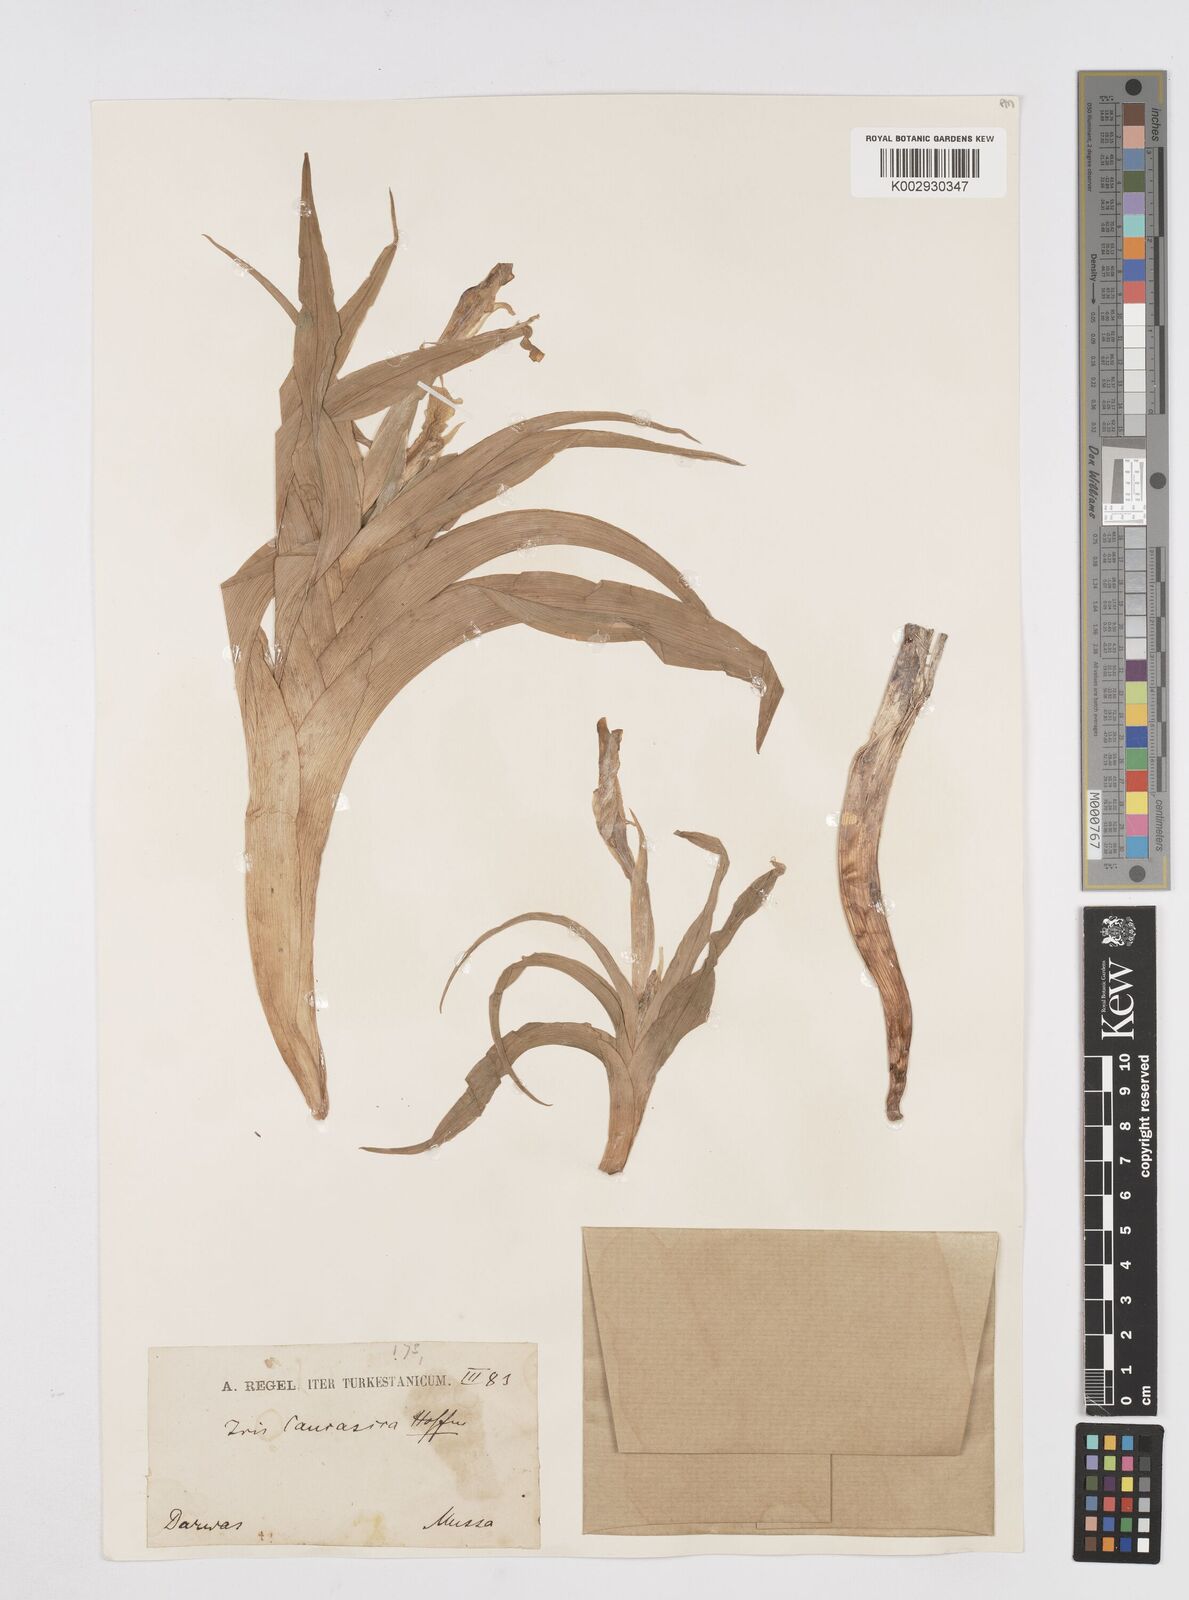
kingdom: Plantae
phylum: Tracheophyta
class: Liliopsida
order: Asparagales
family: Iridaceae
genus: Iris
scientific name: Iris orchioides
